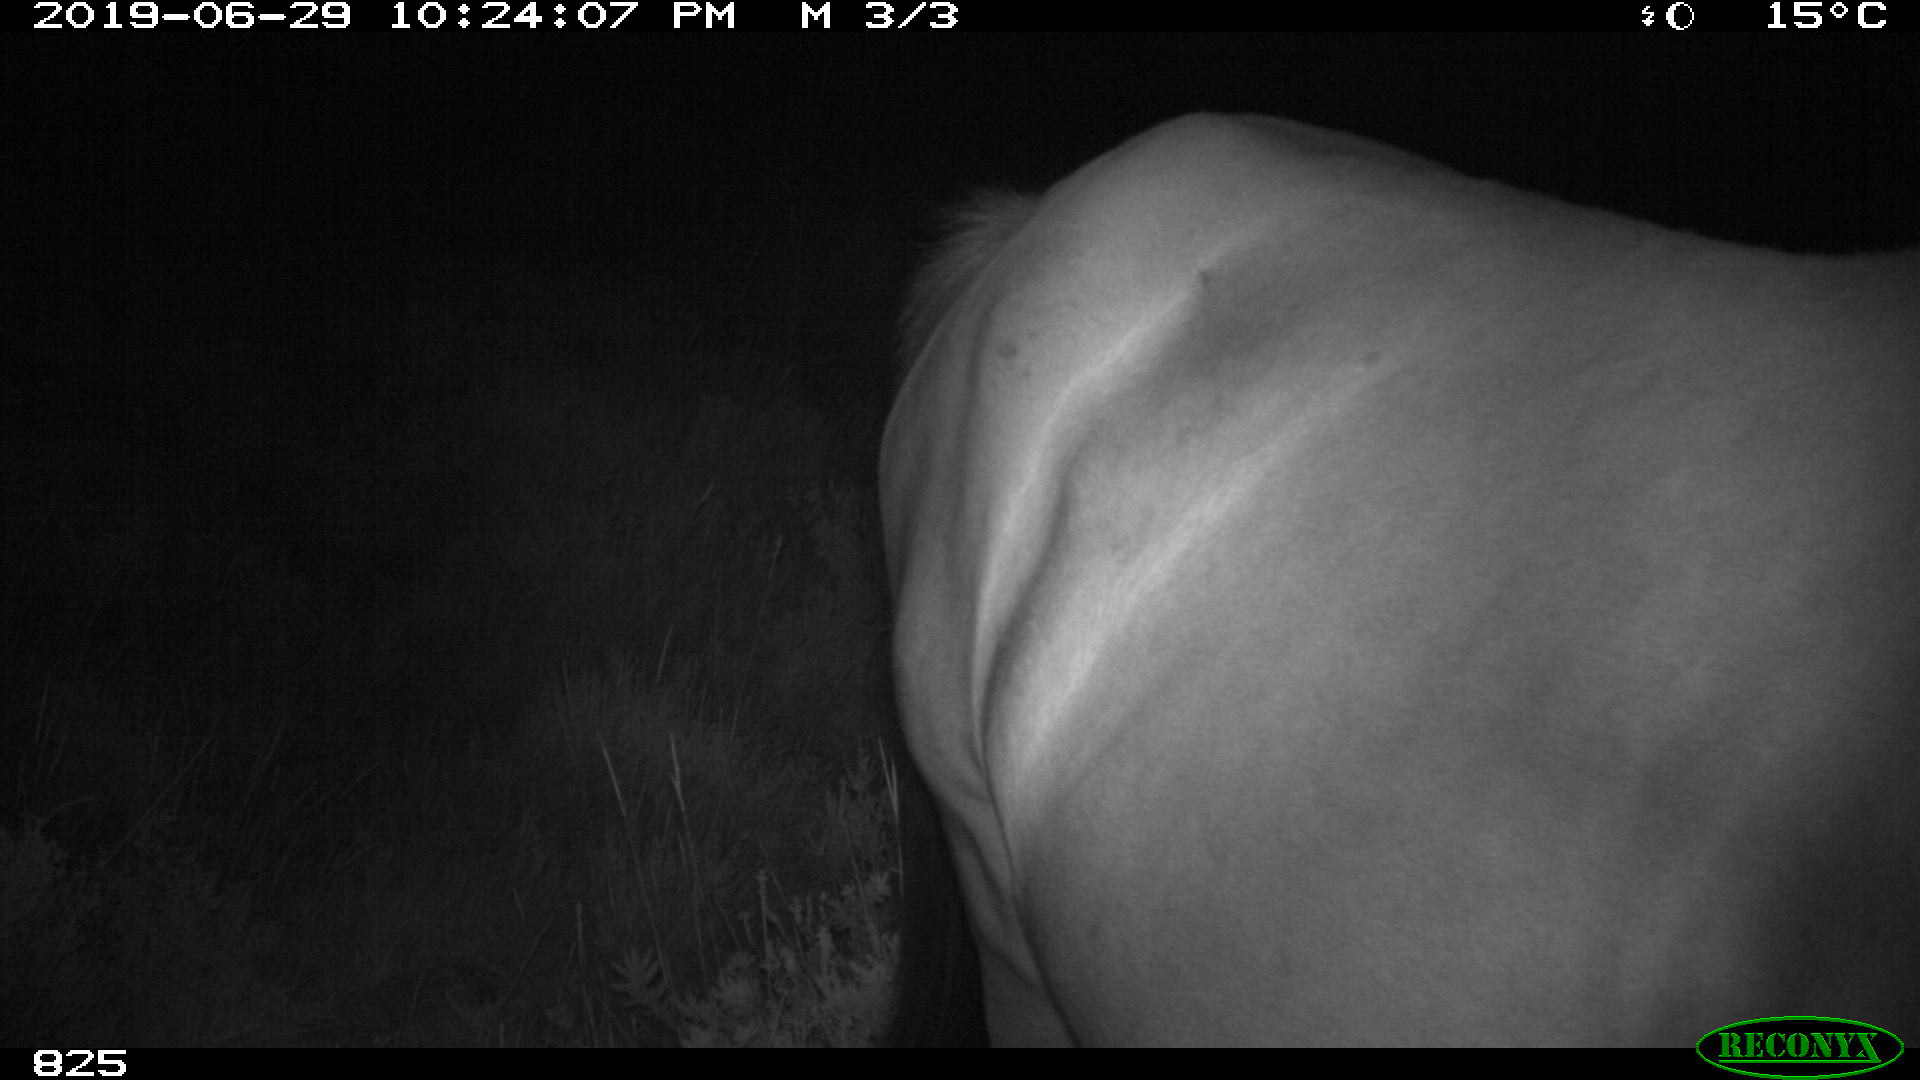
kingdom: Animalia
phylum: Chordata
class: Mammalia
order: Perissodactyla
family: Equidae
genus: Equus
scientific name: Equus caballus
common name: Horse
